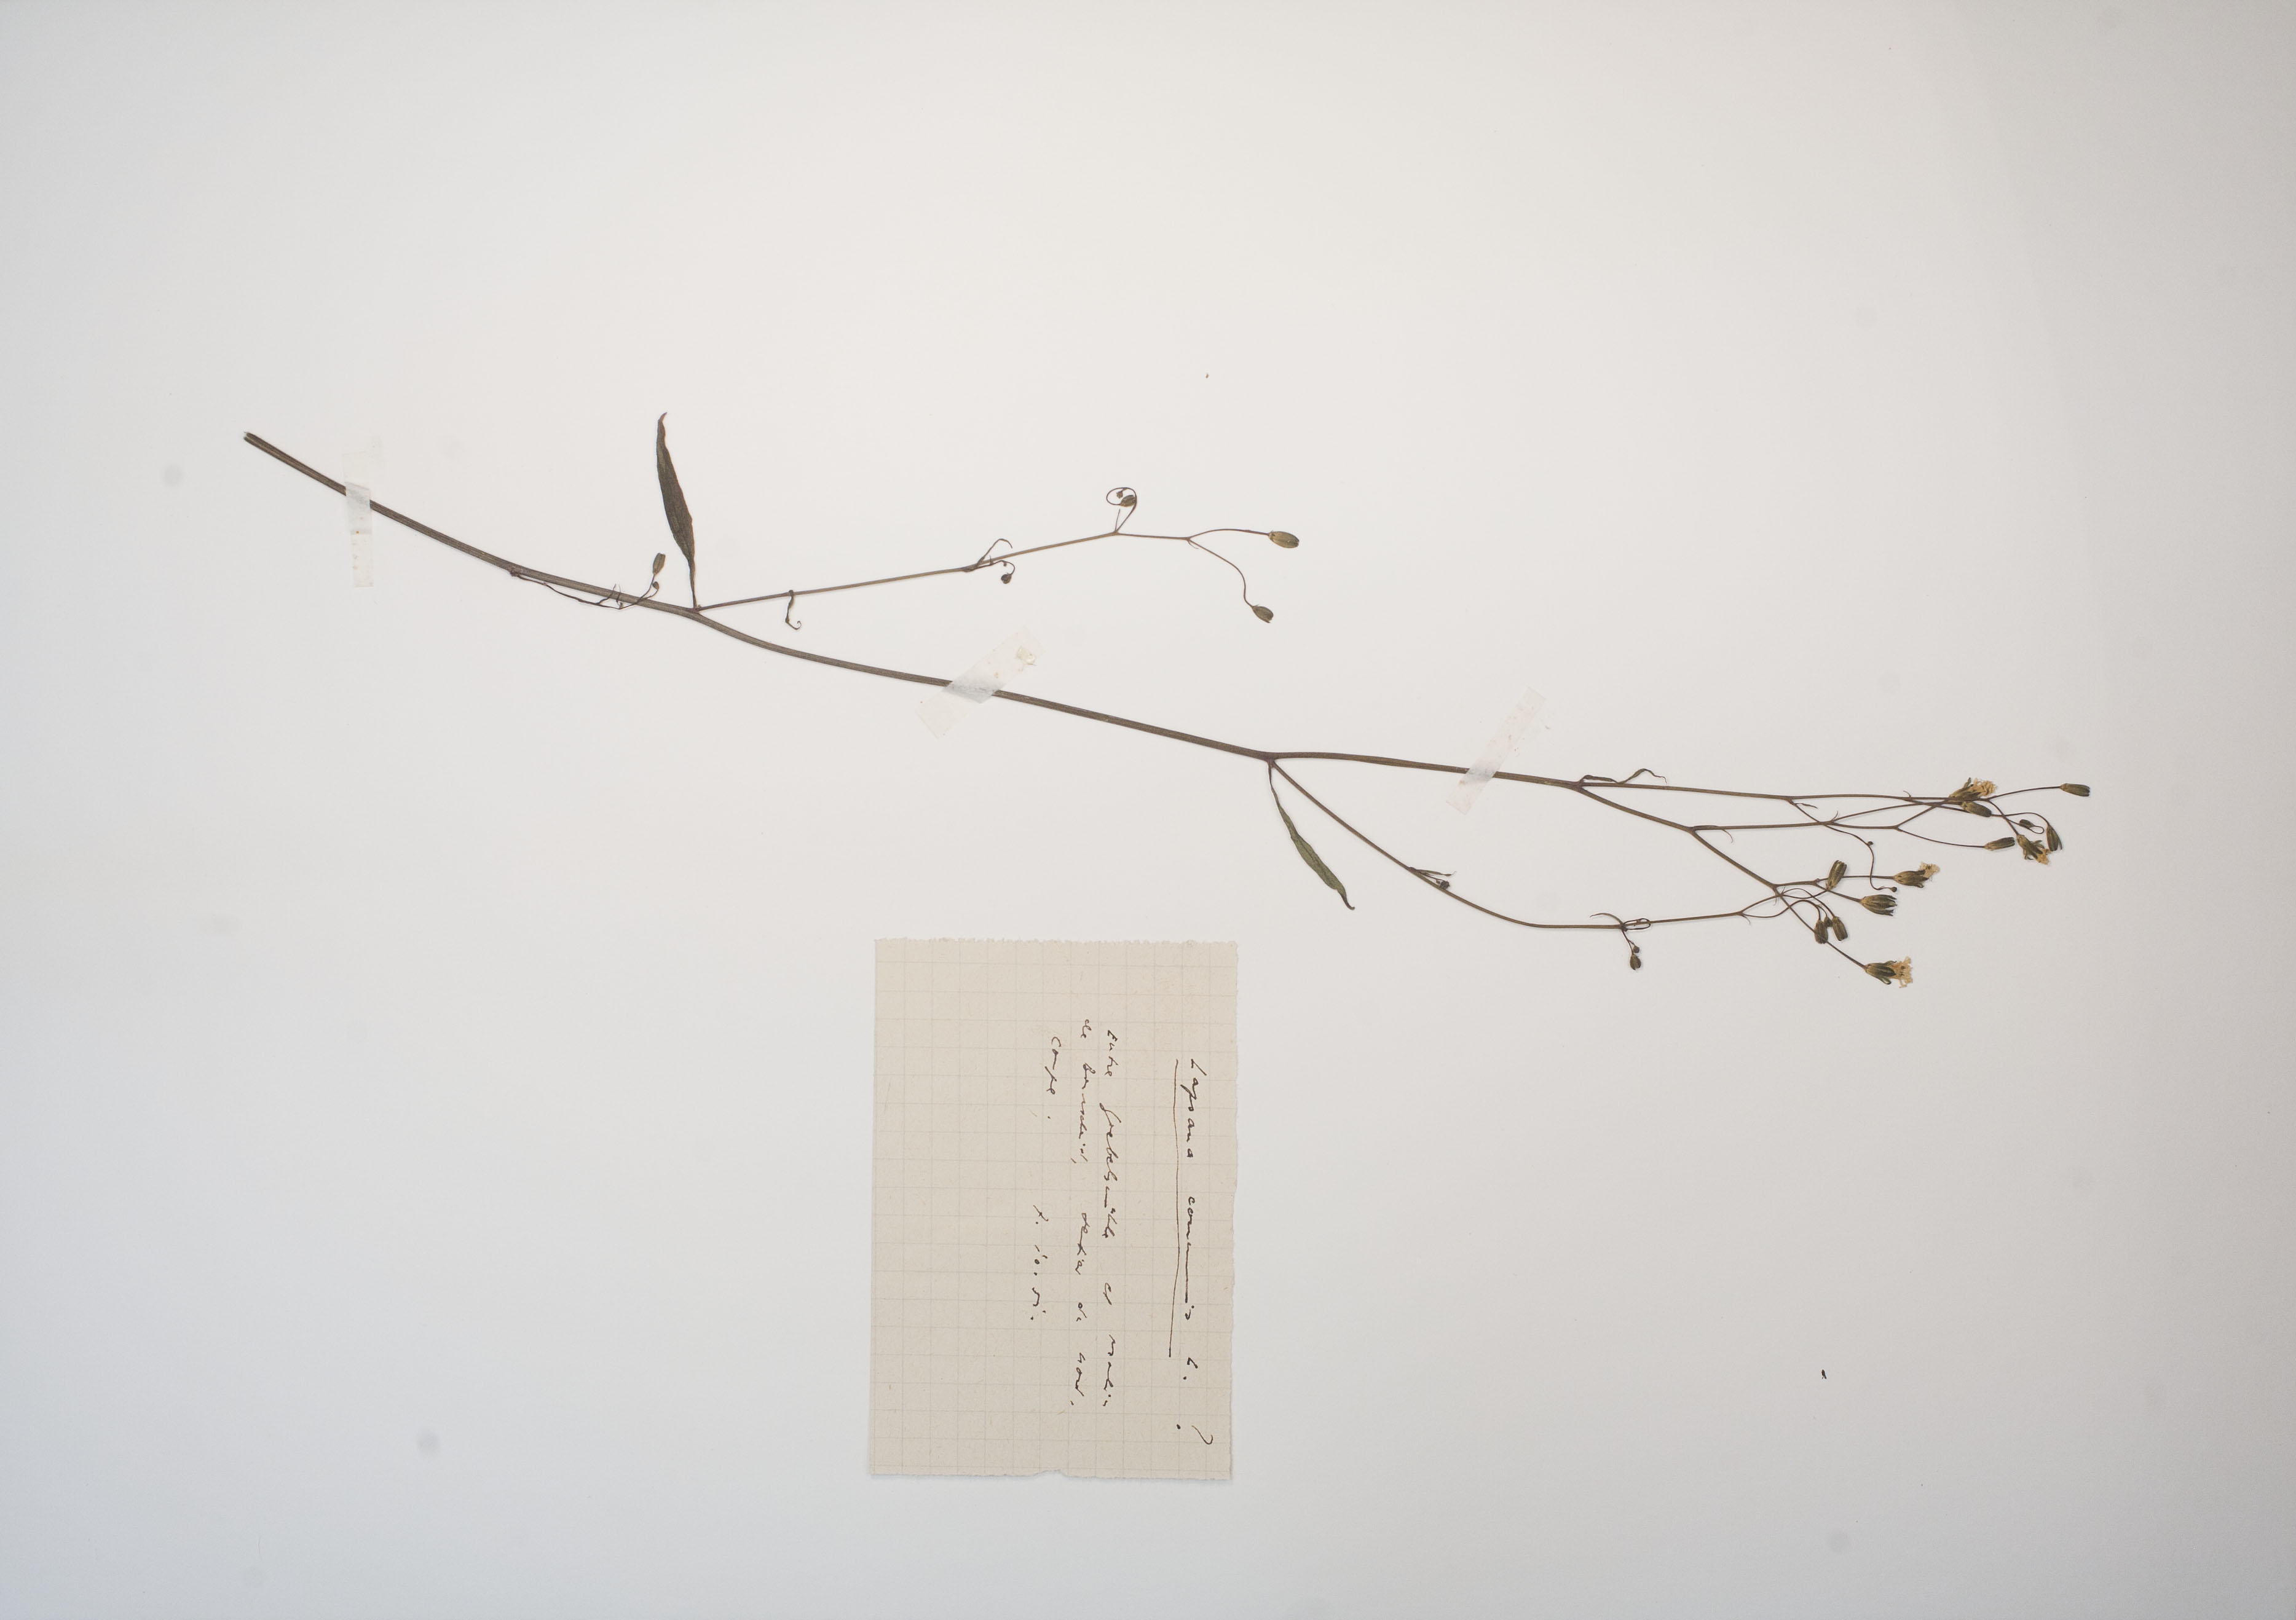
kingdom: Plantae
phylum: Tracheophyta
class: Magnoliopsida
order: Asterales
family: Asteraceae
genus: Lapsana
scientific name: Lapsana communis
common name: Nipplewort
